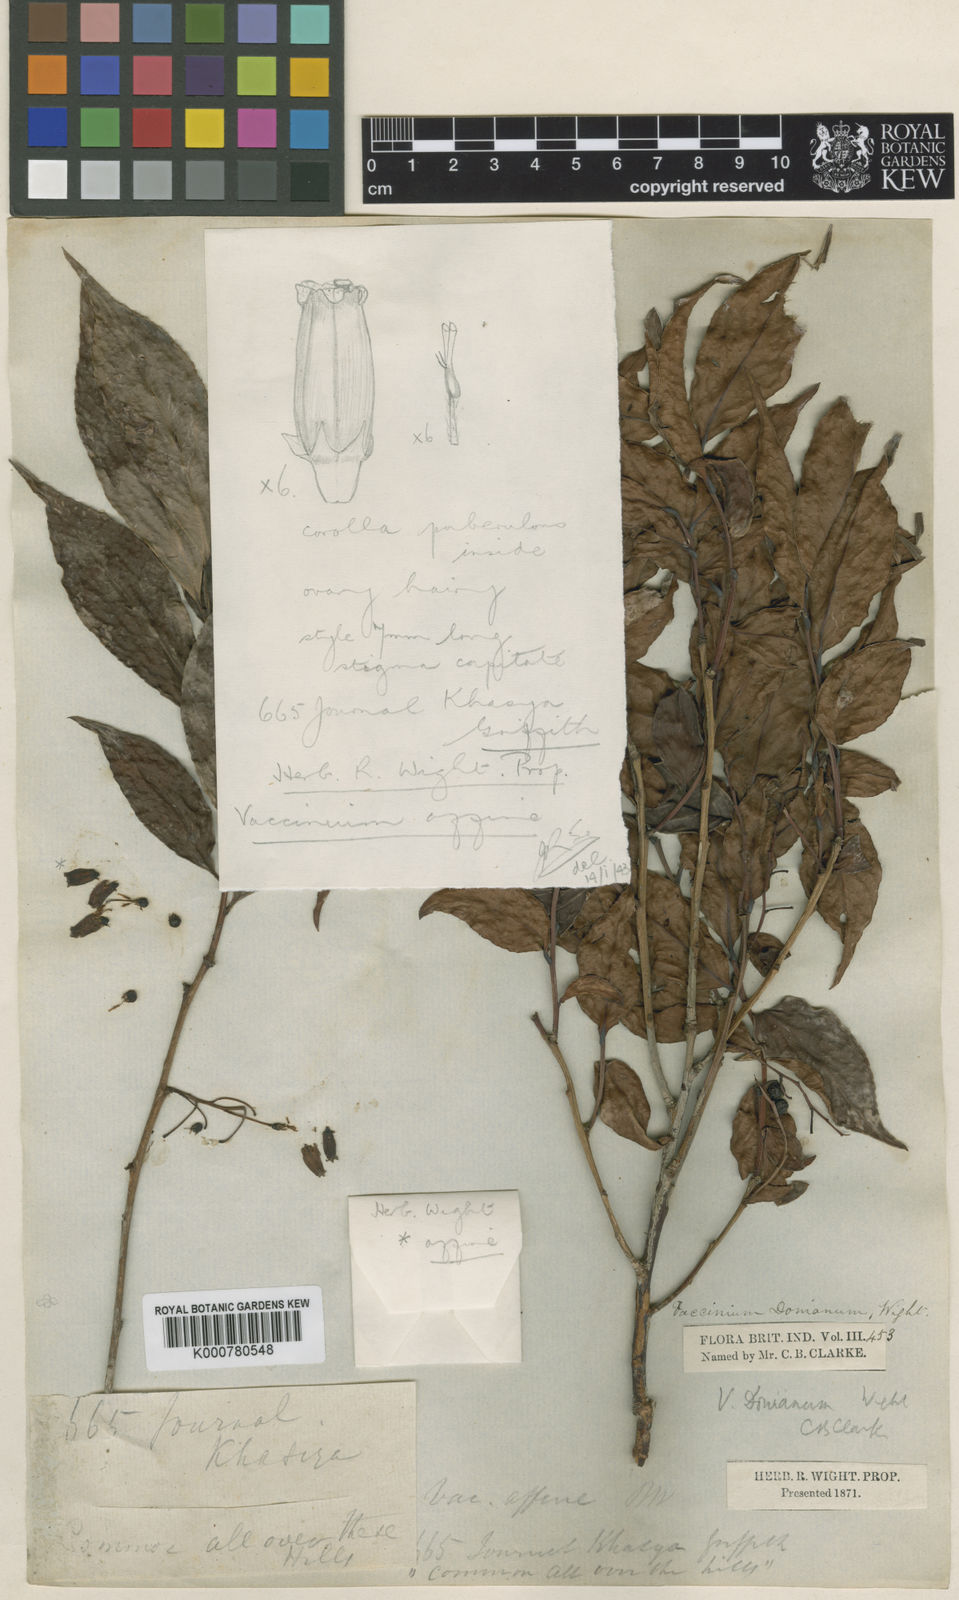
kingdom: Plantae
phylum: Tracheophyta
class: Magnoliopsida
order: Ericales
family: Ericaceae
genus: Vaccinium
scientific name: Vaccinium
